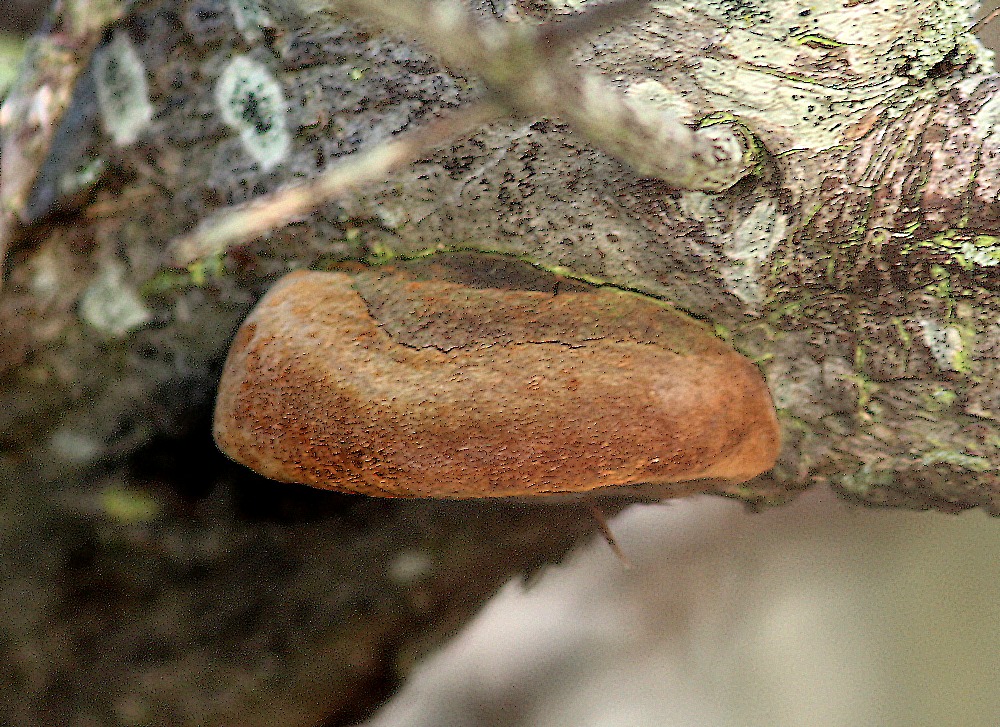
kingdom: Fungi
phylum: Basidiomycota
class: Agaricomycetes
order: Hymenochaetales
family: Hymenochaetaceae
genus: Fomitiporia
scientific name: Fomitiporia hippophaeicola
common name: havtorn-ildporesvamp
